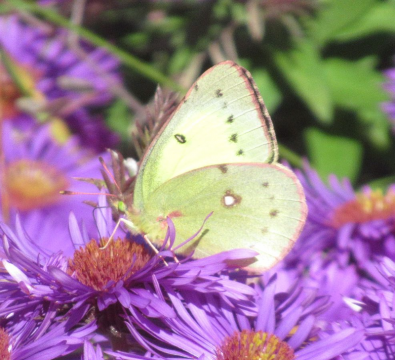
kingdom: Animalia
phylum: Arthropoda
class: Insecta
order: Lepidoptera
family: Pieridae
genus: Colias
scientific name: Colias philodice
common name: Clouded Sulphur
